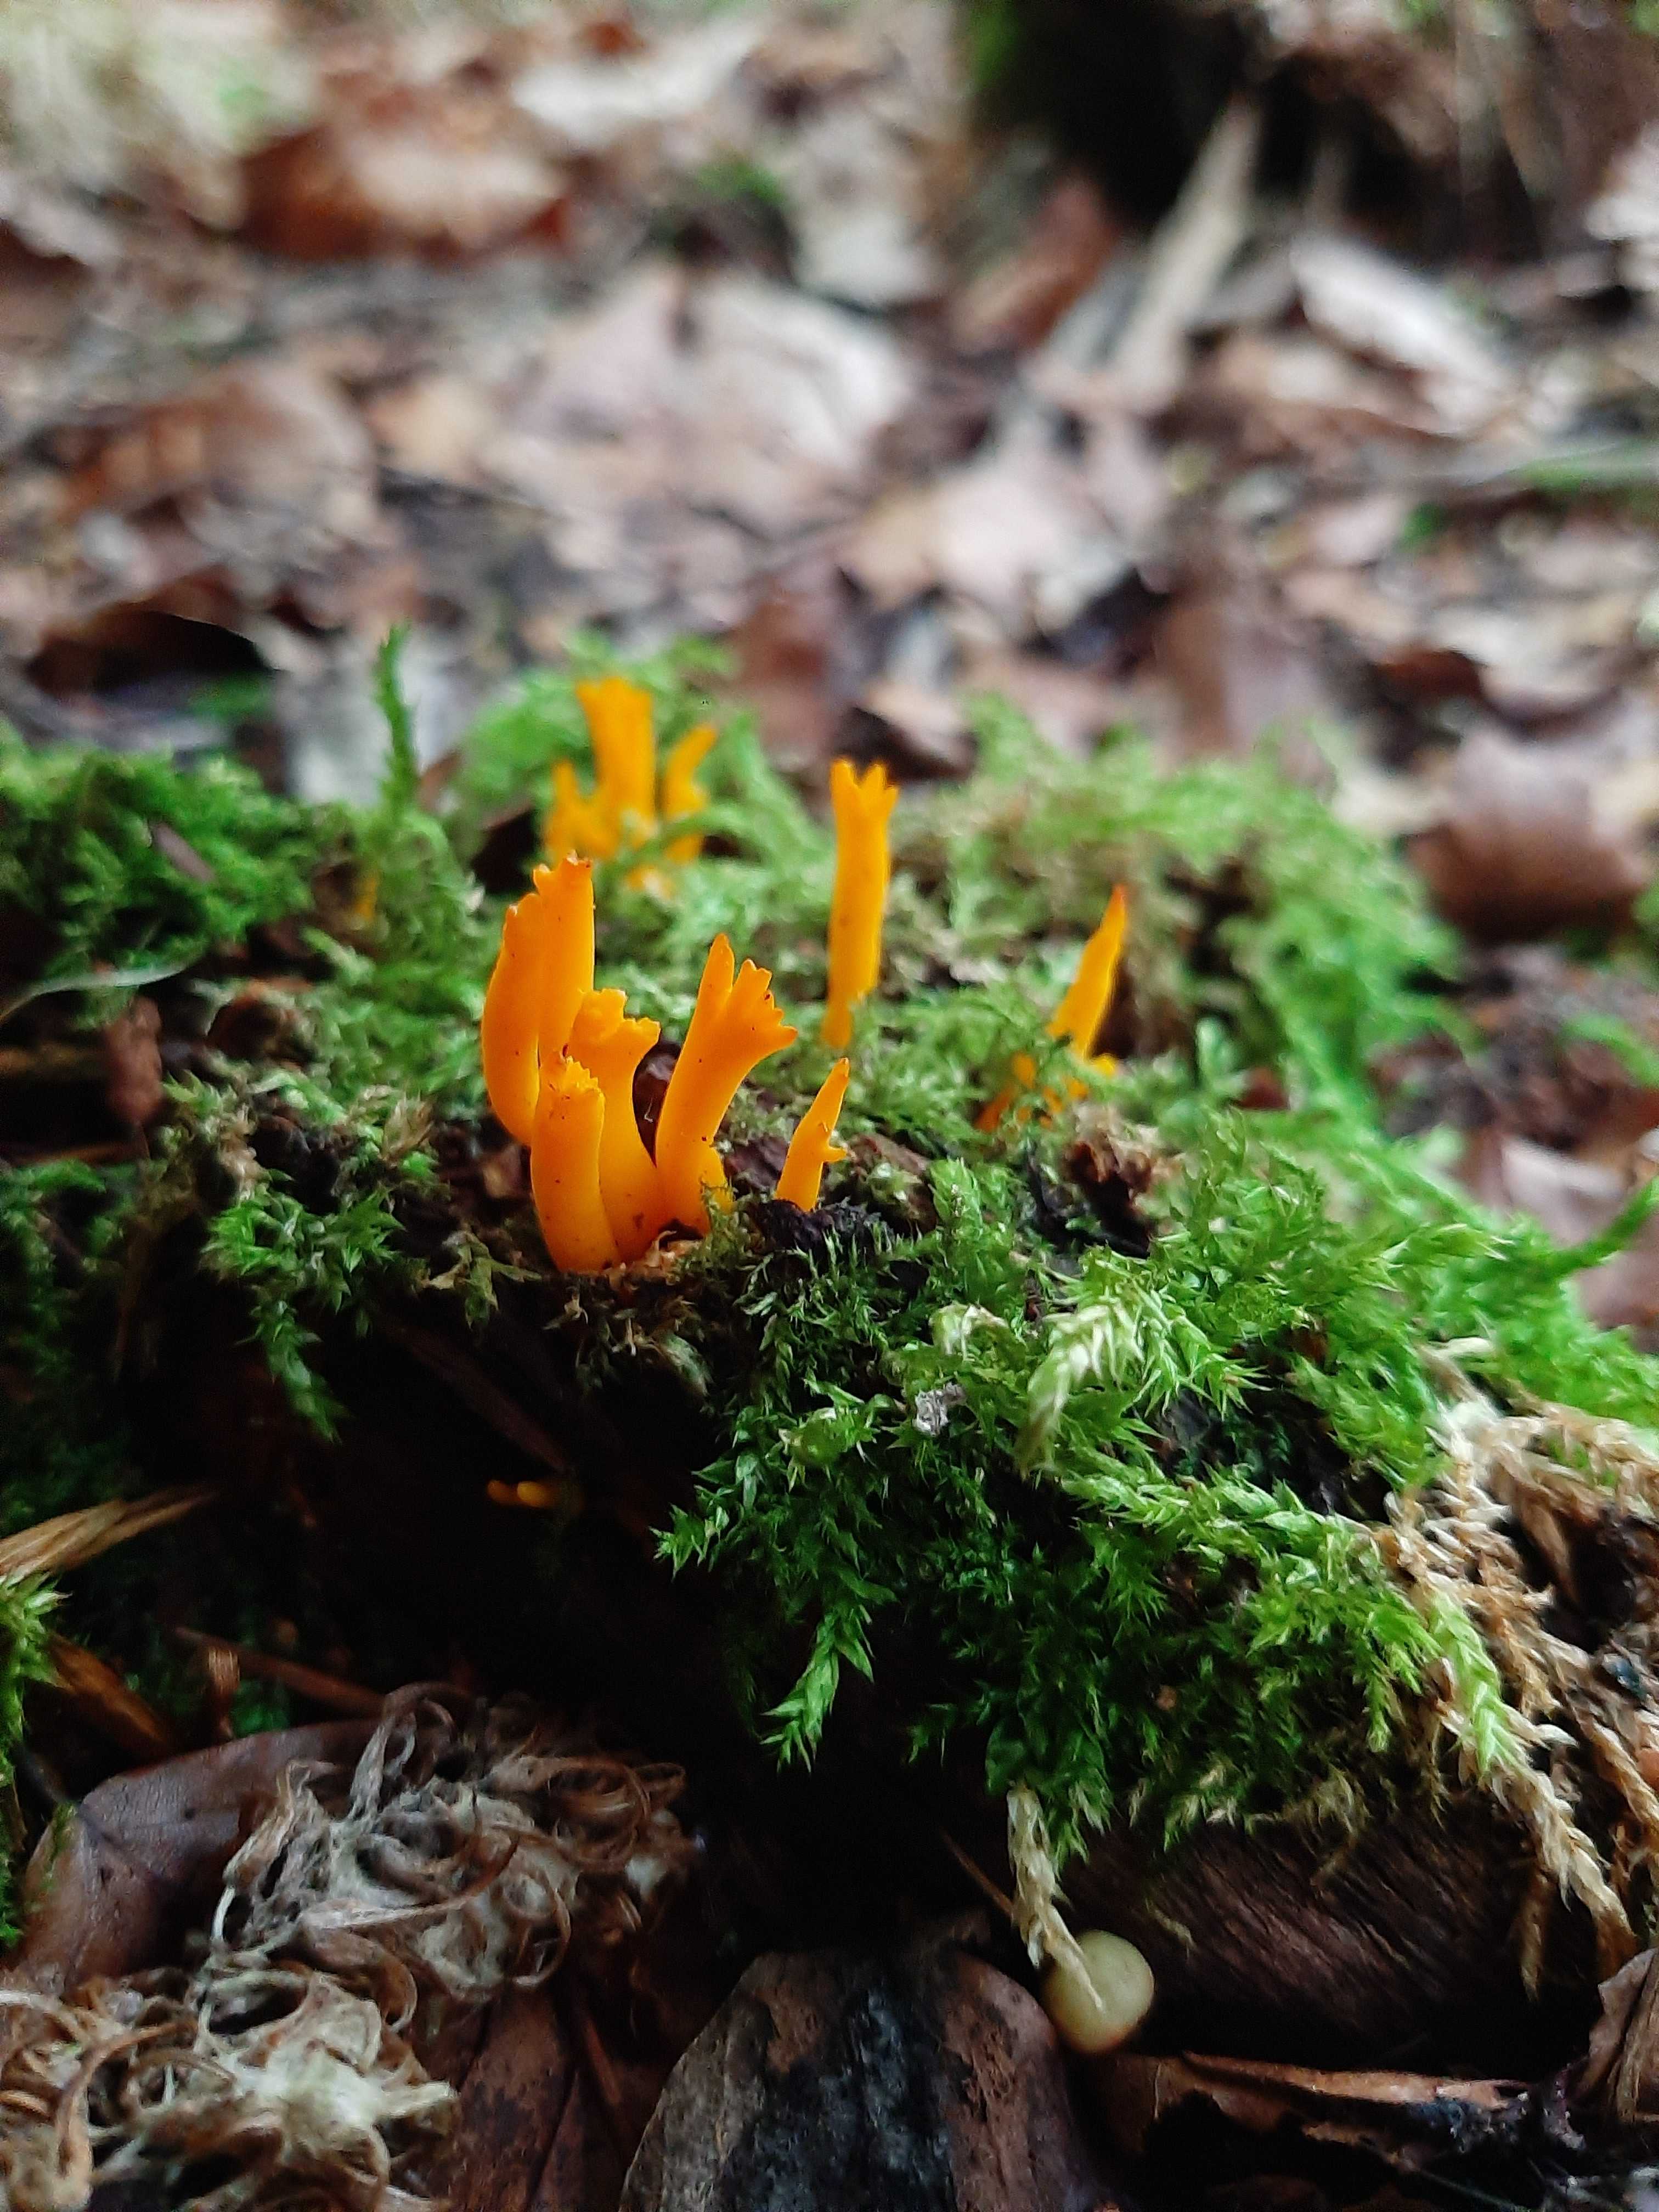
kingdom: Fungi
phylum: Basidiomycota
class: Dacrymycetes
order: Dacrymycetales
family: Dacrymycetaceae
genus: Calocera
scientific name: Calocera viscosa
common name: almindelig guldgaffel
